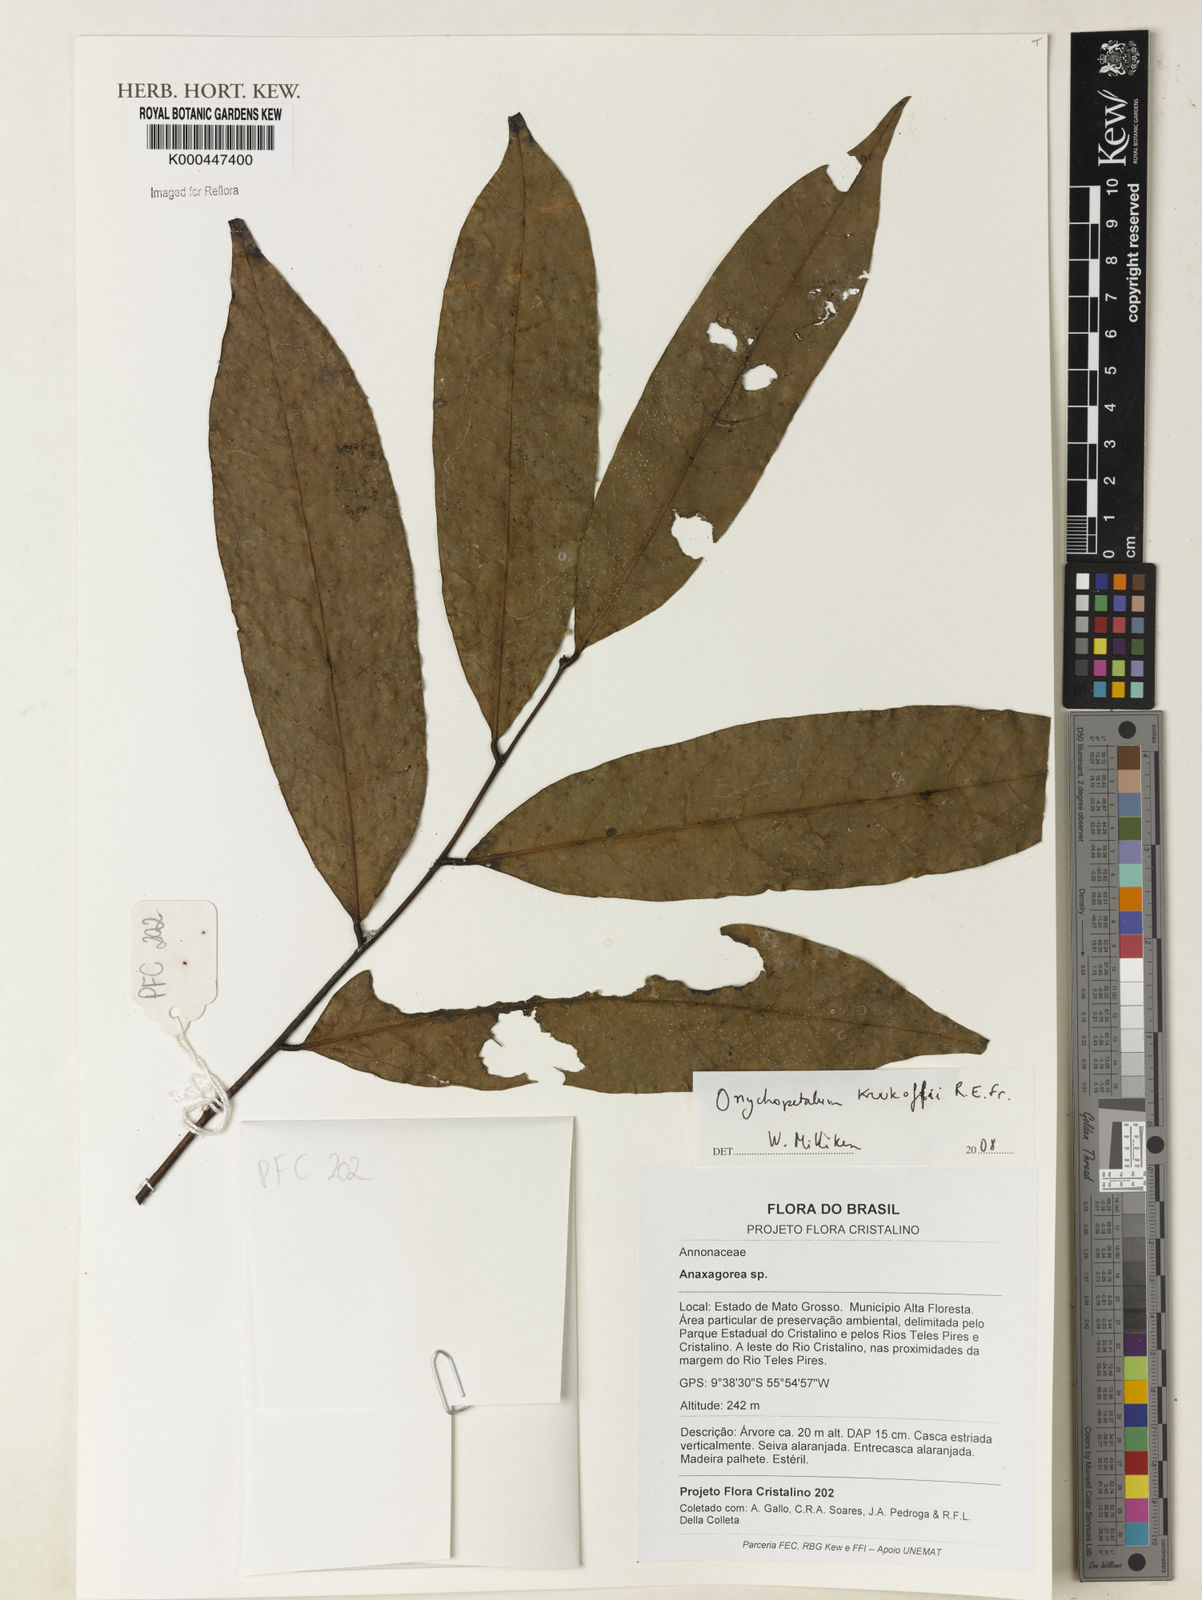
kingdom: Plantae
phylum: Tracheophyta
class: Magnoliopsida
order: Magnoliales
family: Annonaceae
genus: Onychopetalum
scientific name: Onychopetalum periquino
